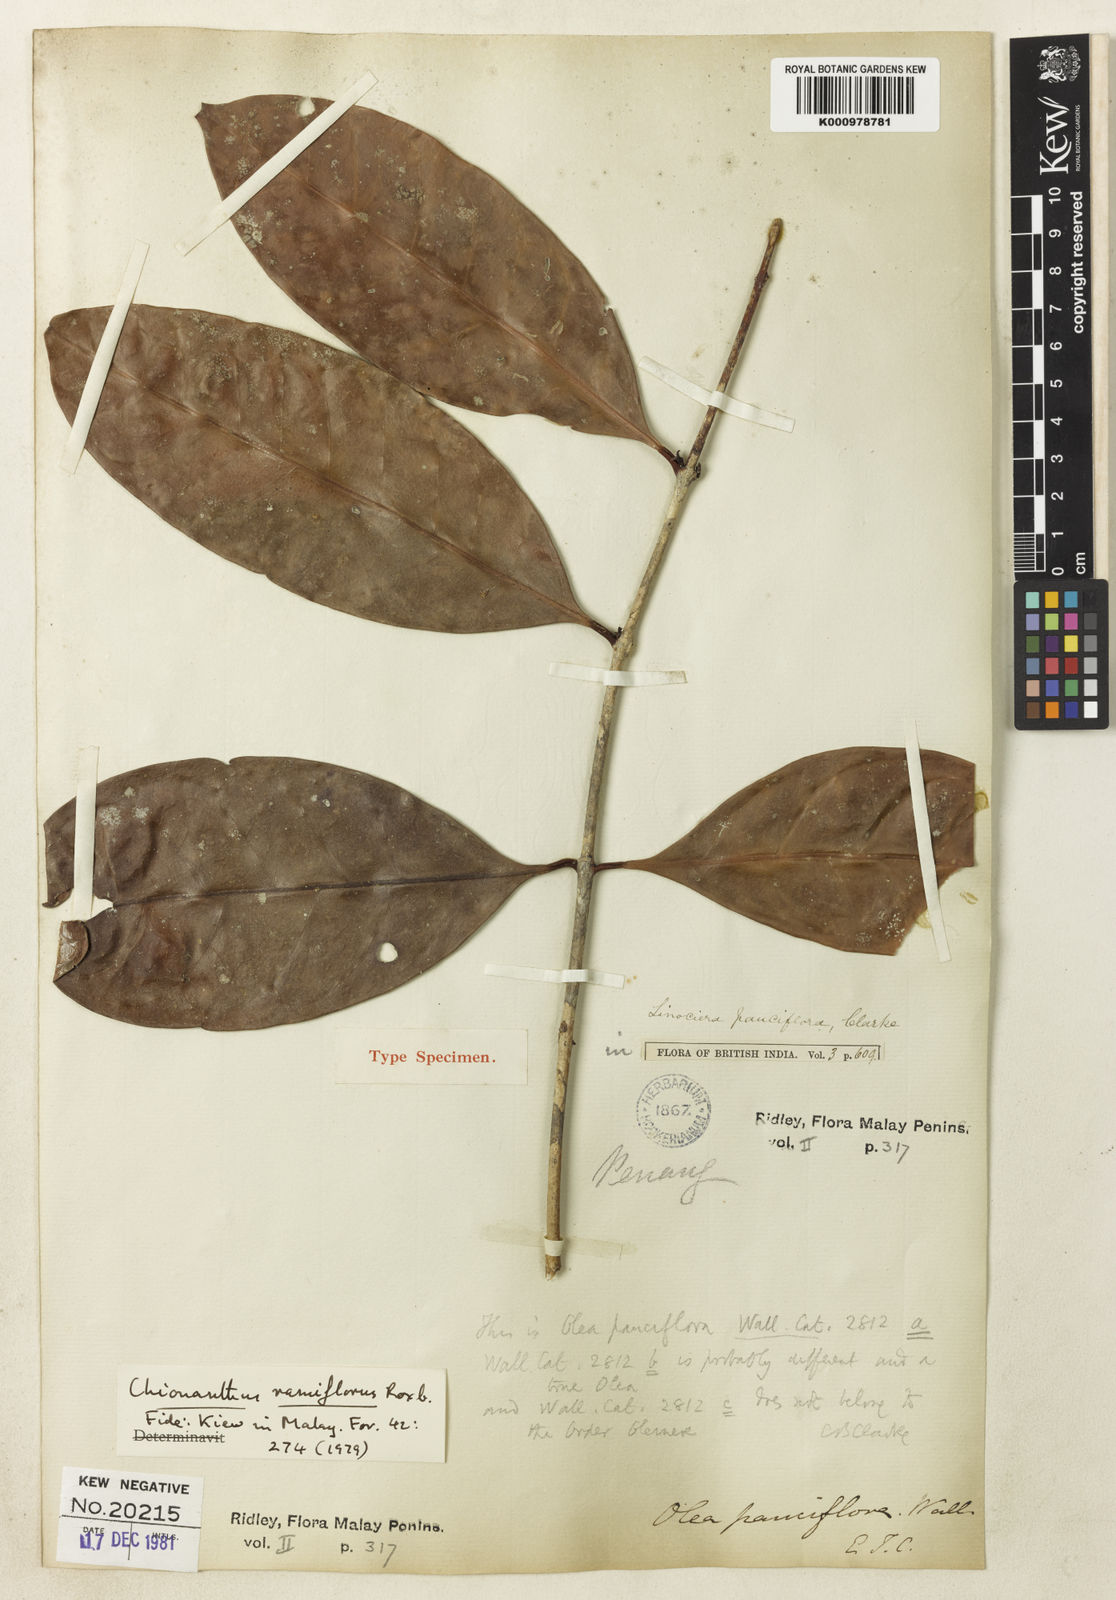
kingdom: Plantae
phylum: Tracheophyta
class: Magnoliopsida
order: Lamiales
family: Oleaceae
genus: Chionanthus
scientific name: Chionanthus ramiflorus
